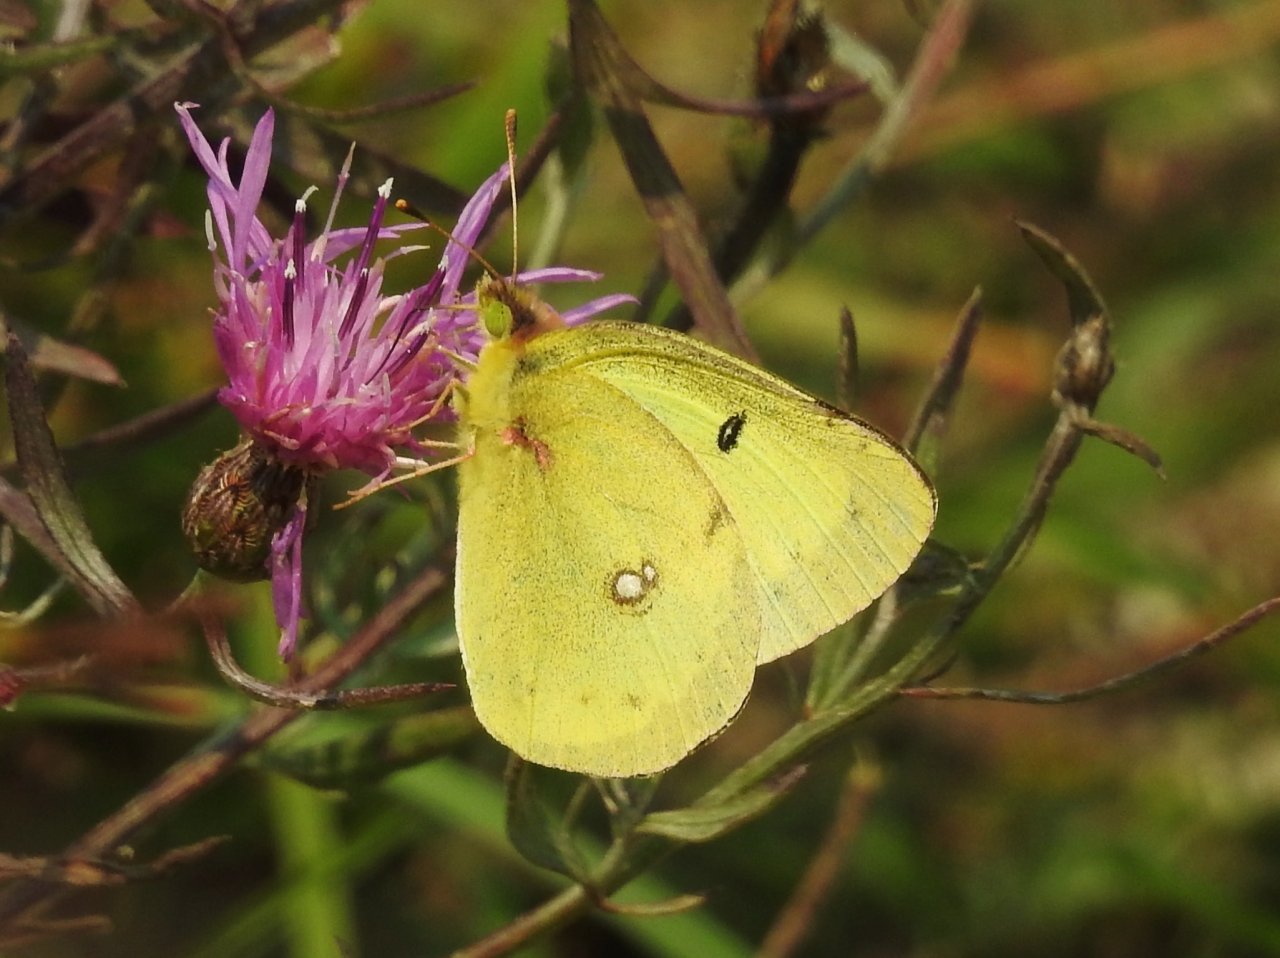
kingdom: Animalia
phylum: Arthropoda
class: Insecta
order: Lepidoptera
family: Pieridae
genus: Colias
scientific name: Colias philodice
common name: Clouded Sulphur
